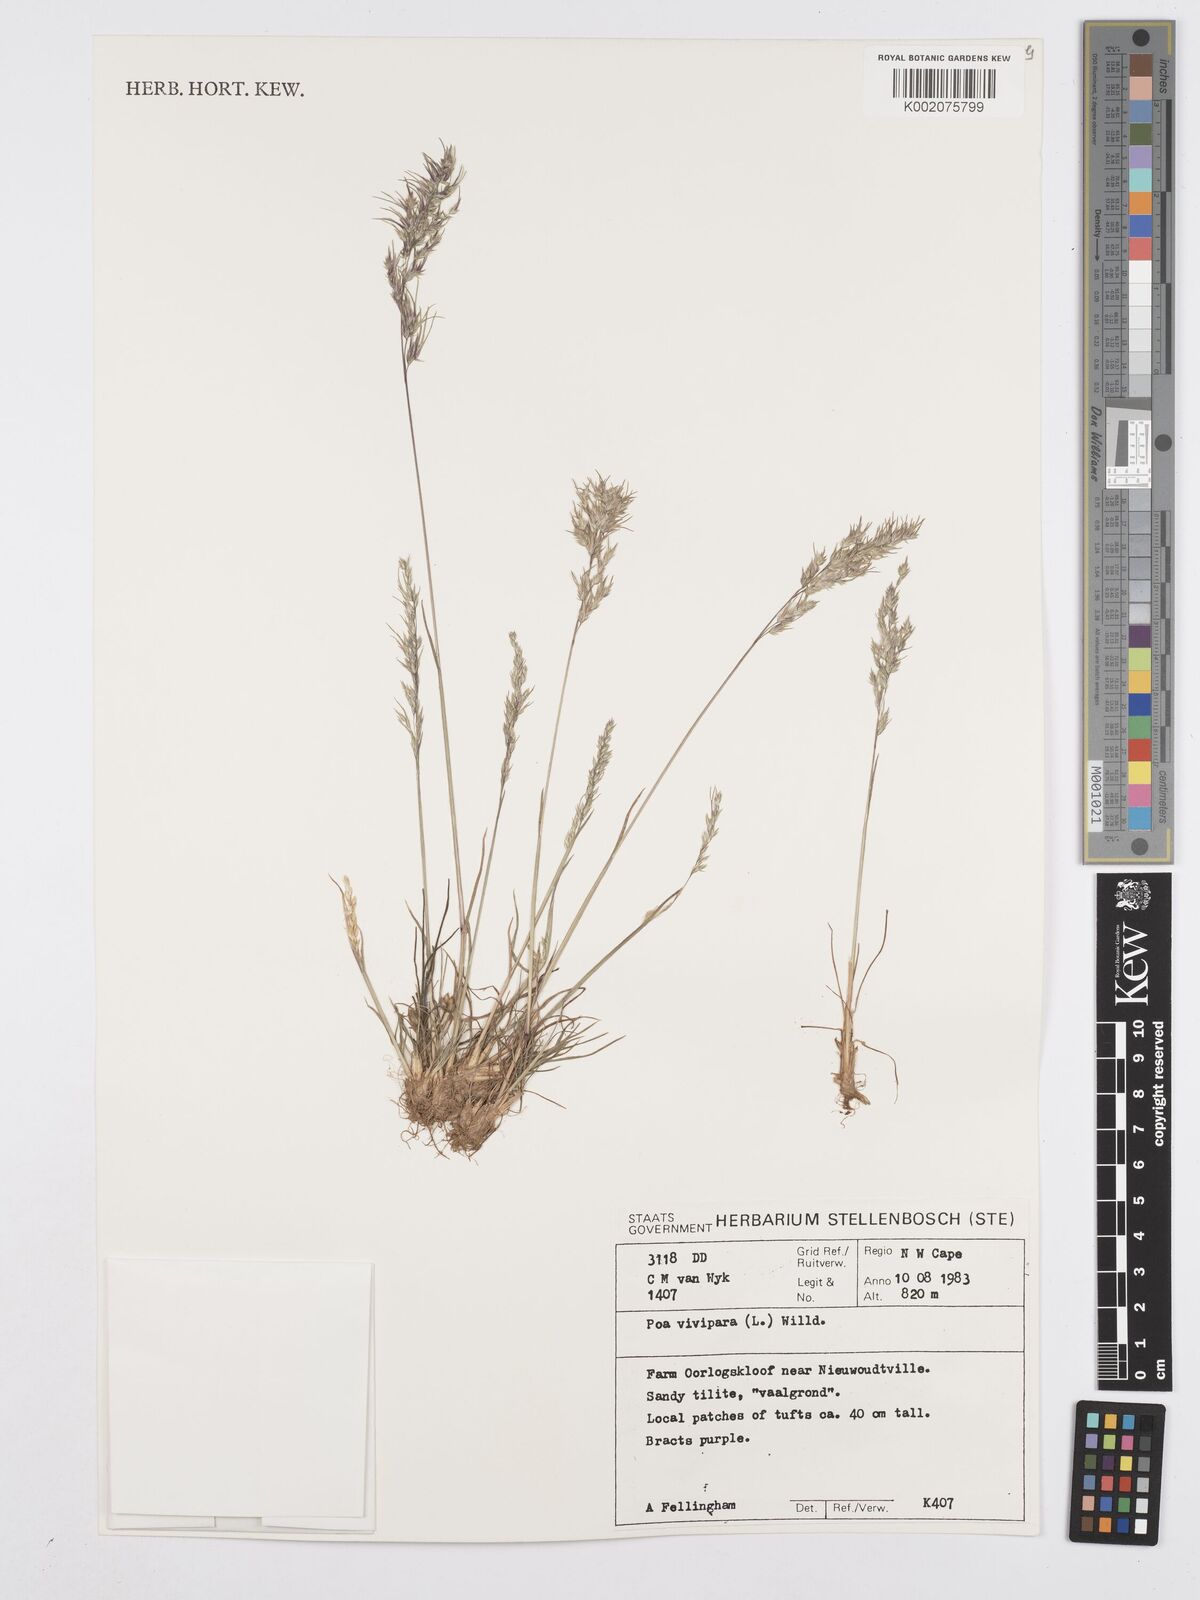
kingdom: Plantae
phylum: Tracheophyta
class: Liliopsida
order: Poales
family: Poaceae
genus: Poa
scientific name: Poa bulbosa
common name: Bulbous bluegrass
